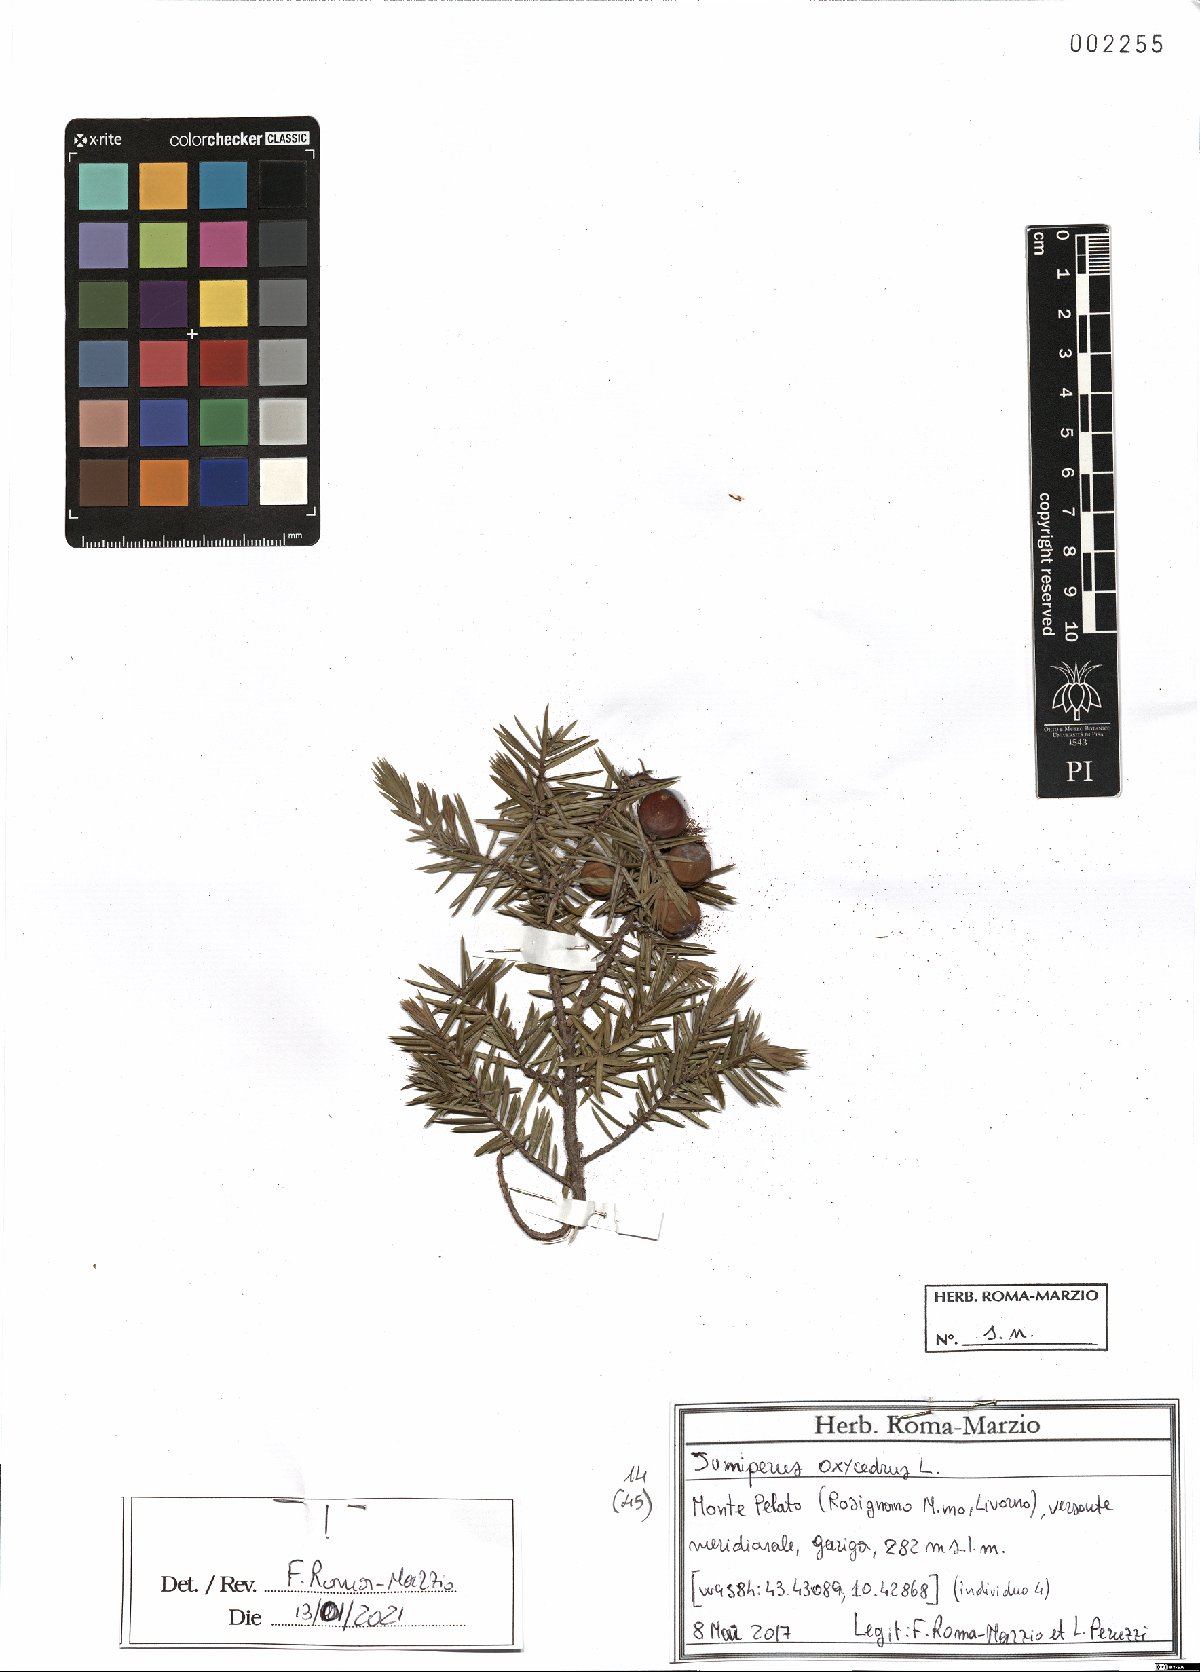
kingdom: Plantae
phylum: Tracheophyta
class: Pinopsida
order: Pinales
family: Cupressaceae
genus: Juniperus
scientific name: Juniperus oxycedrus
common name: Prickly juniper
